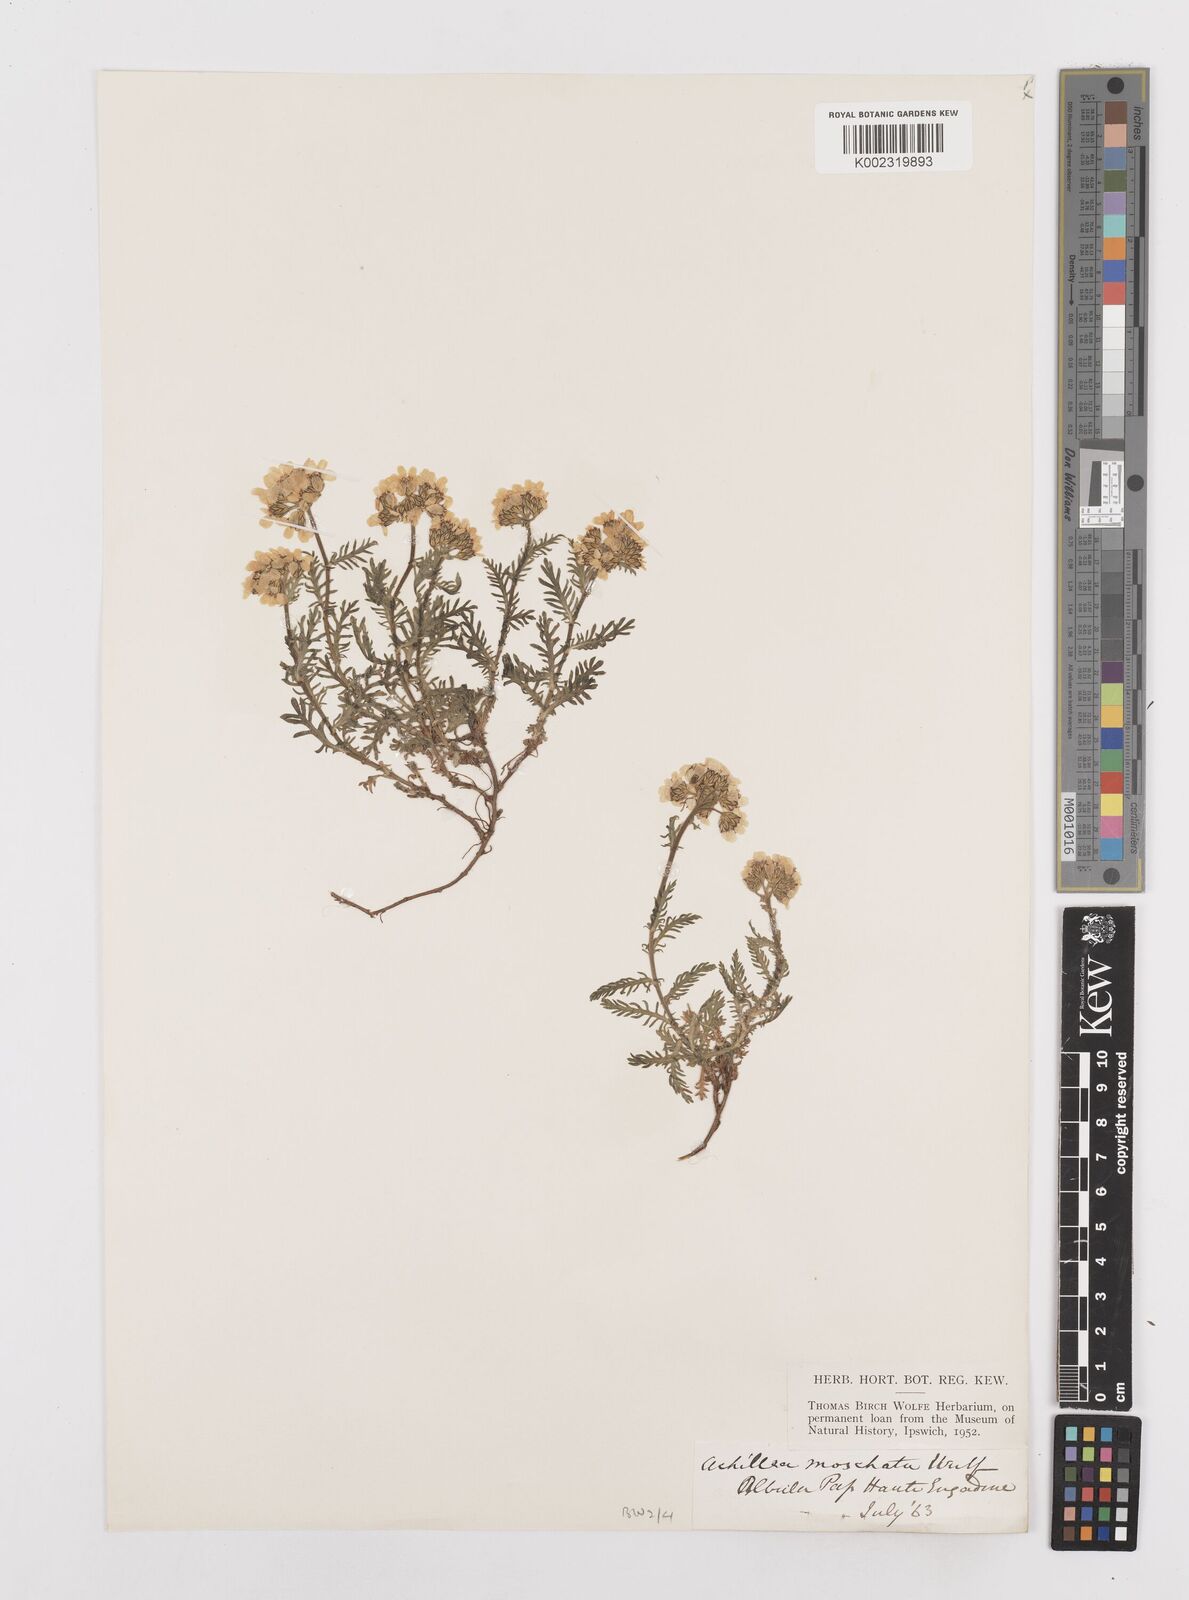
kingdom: Plantae
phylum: Tracheophyta
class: Magnoliopsida
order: Asterales
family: Asteraceae
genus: Achillea
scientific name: Achillea erba-rotta
